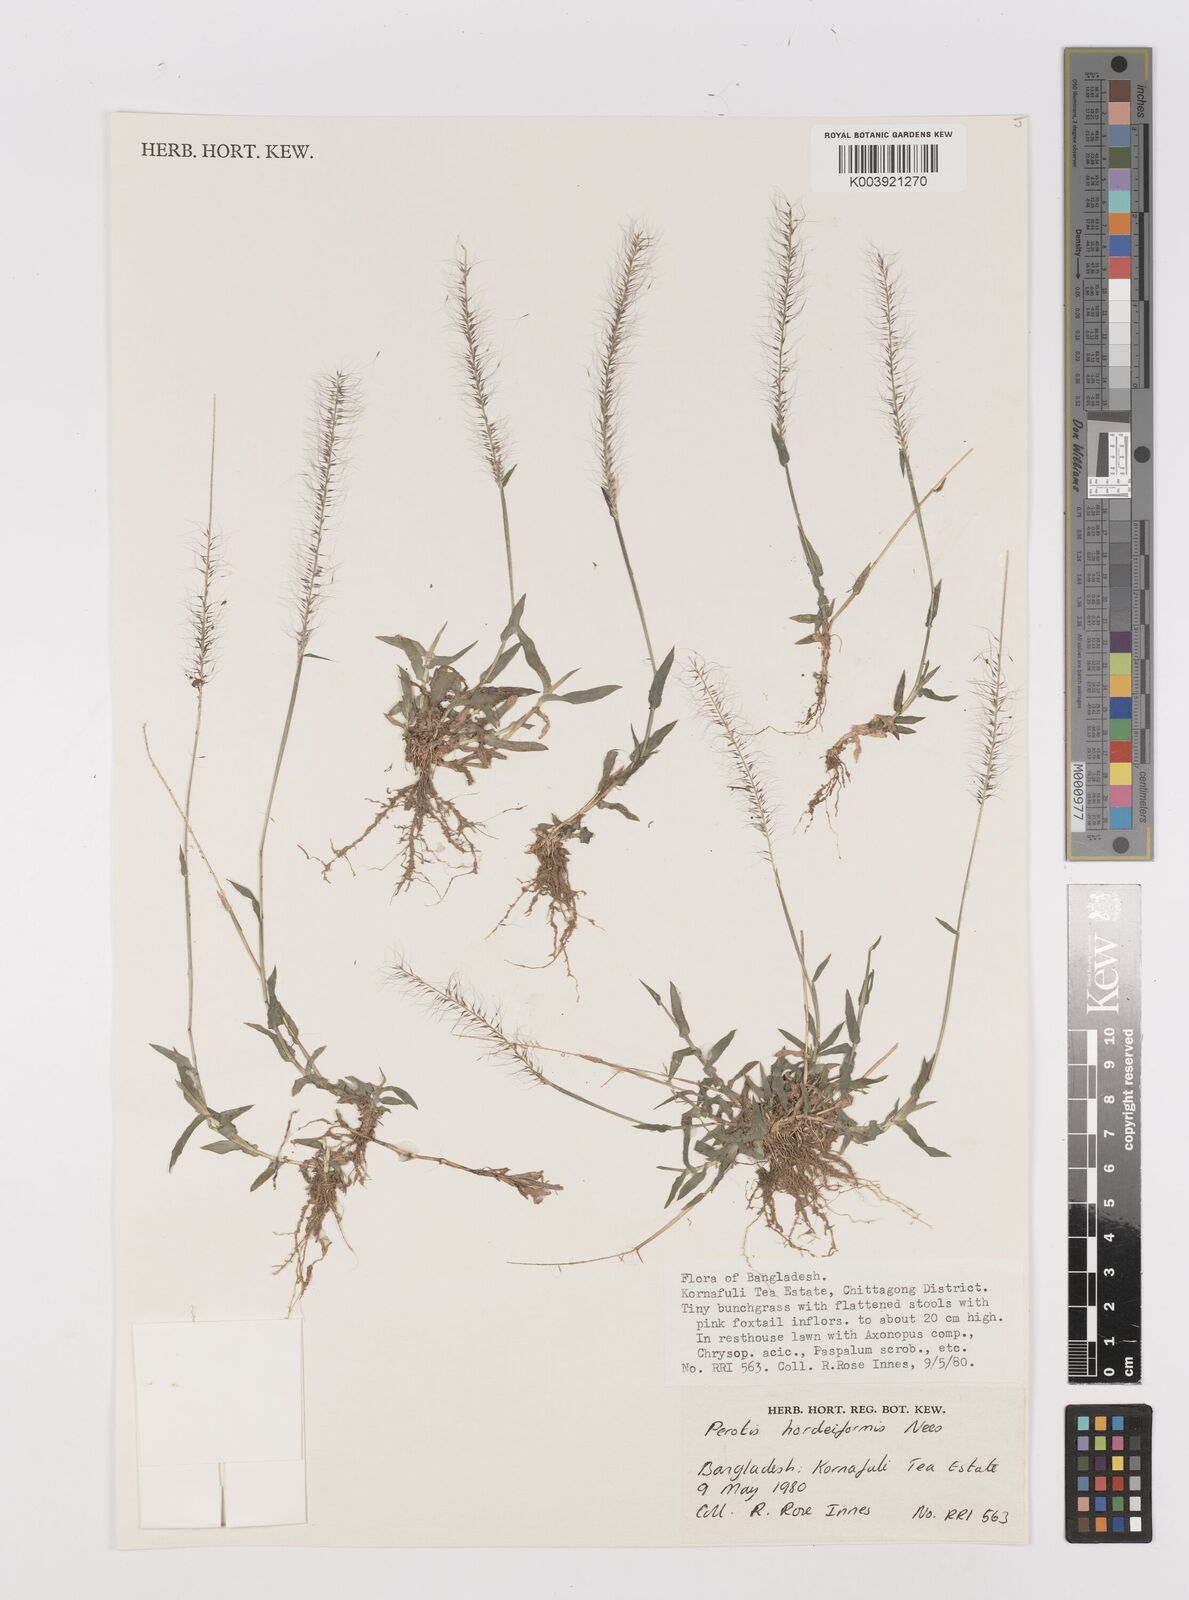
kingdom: Plantae
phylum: Tracheophyta
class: Liliopsida
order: Poales
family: Poaceae
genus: Perotis
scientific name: Perotis hordeiformis
